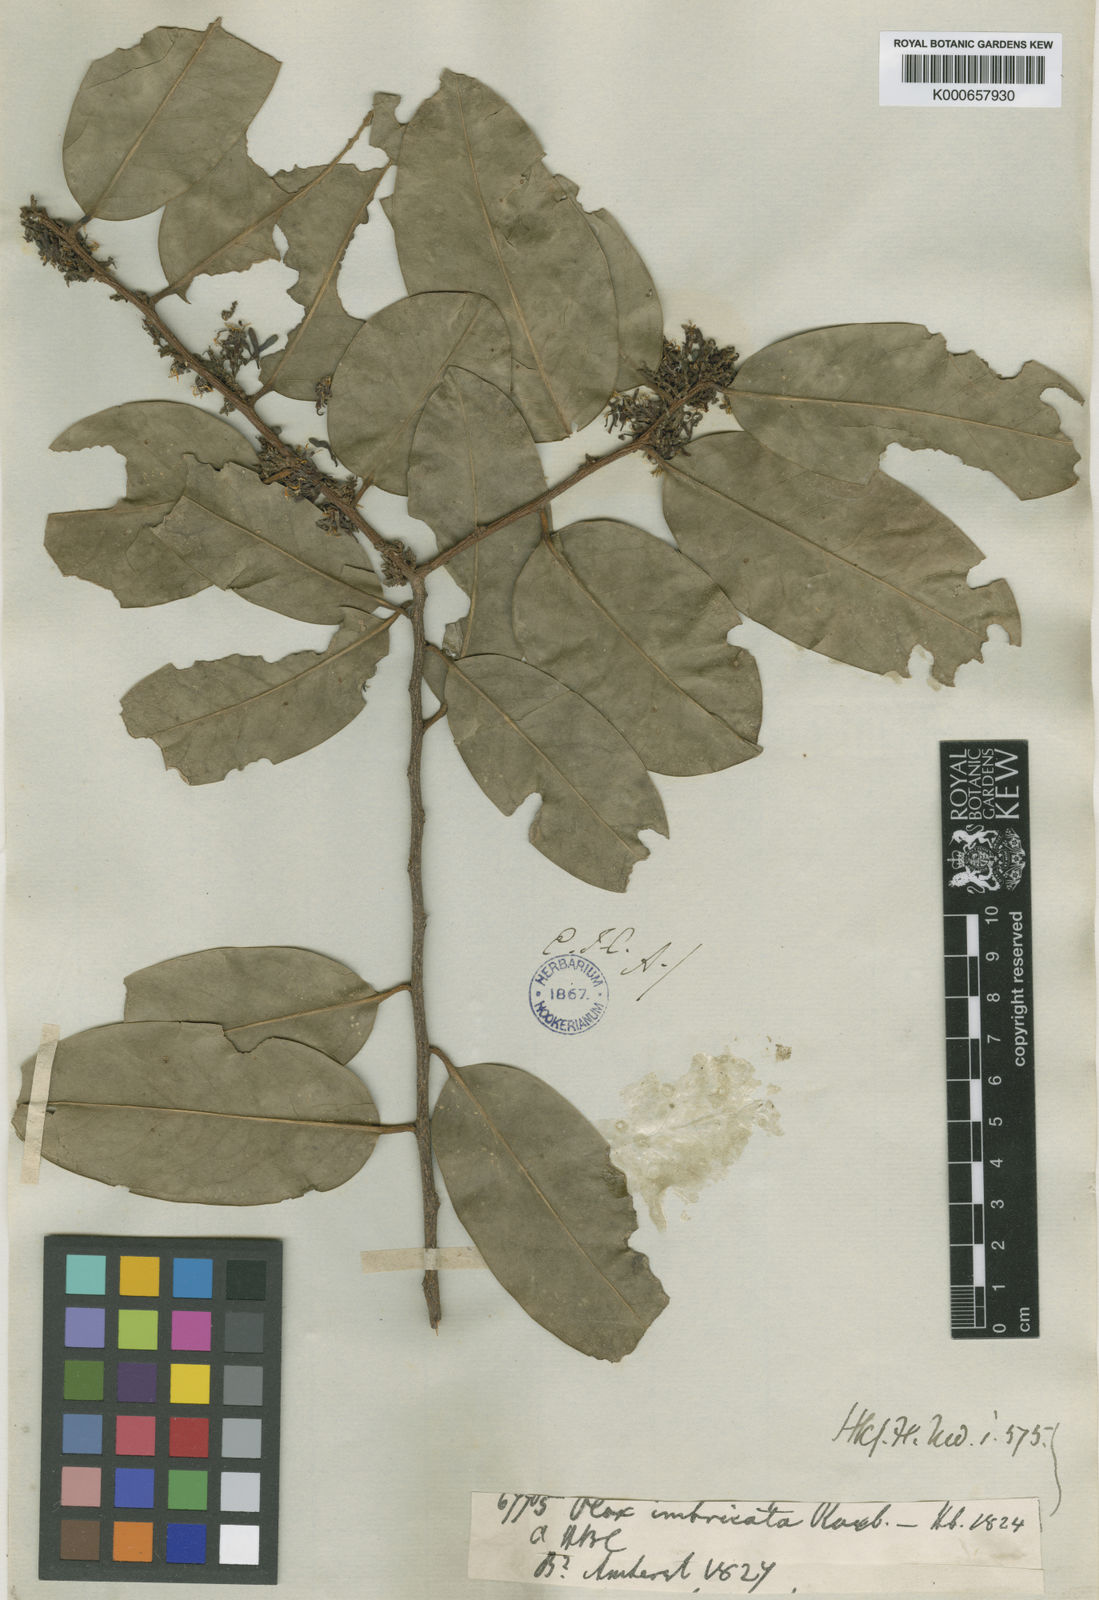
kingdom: Plantae
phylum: Tracheophyta
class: Magnoliopsida
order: Santalales
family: Olacaceae
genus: Olax
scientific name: Olax imbricata
